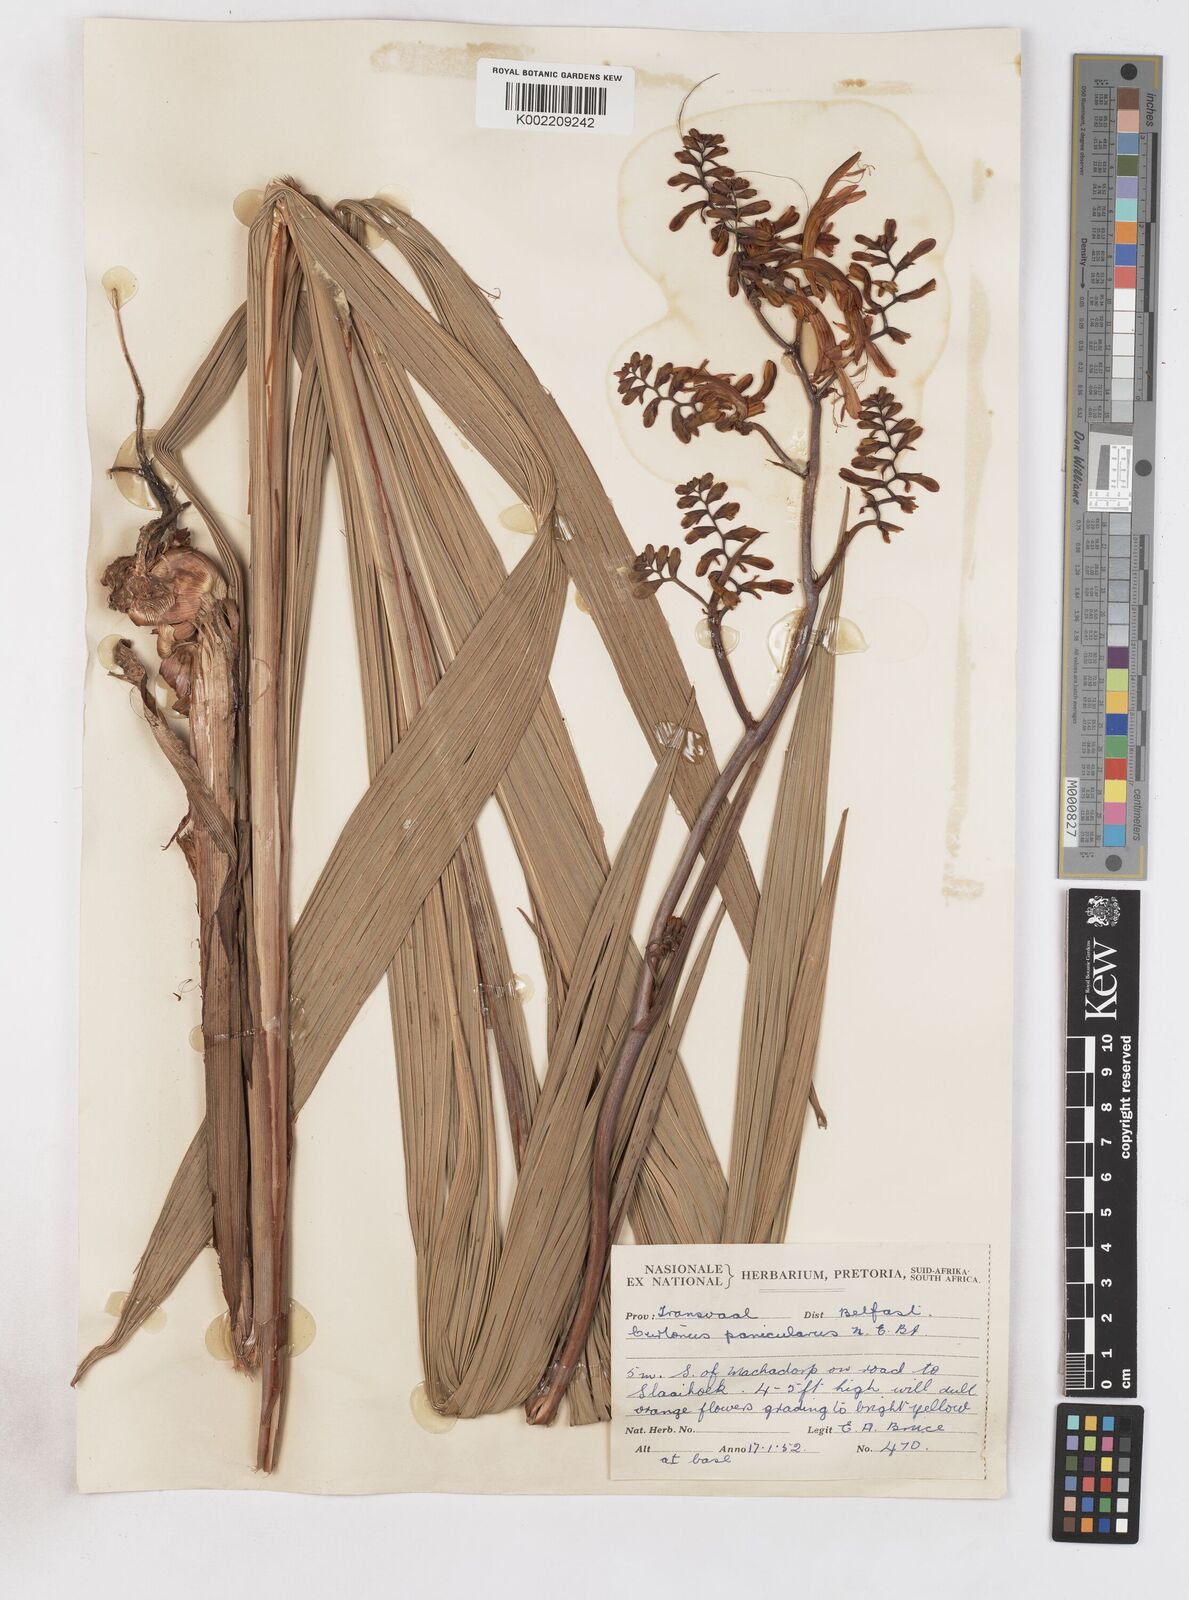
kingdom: Plantae
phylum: Tracheophyta
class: Liliopsida
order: Asparagales
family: Iridaceae
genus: Crocosmia
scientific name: Crocosmia paniculata
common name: Aunt eliza
